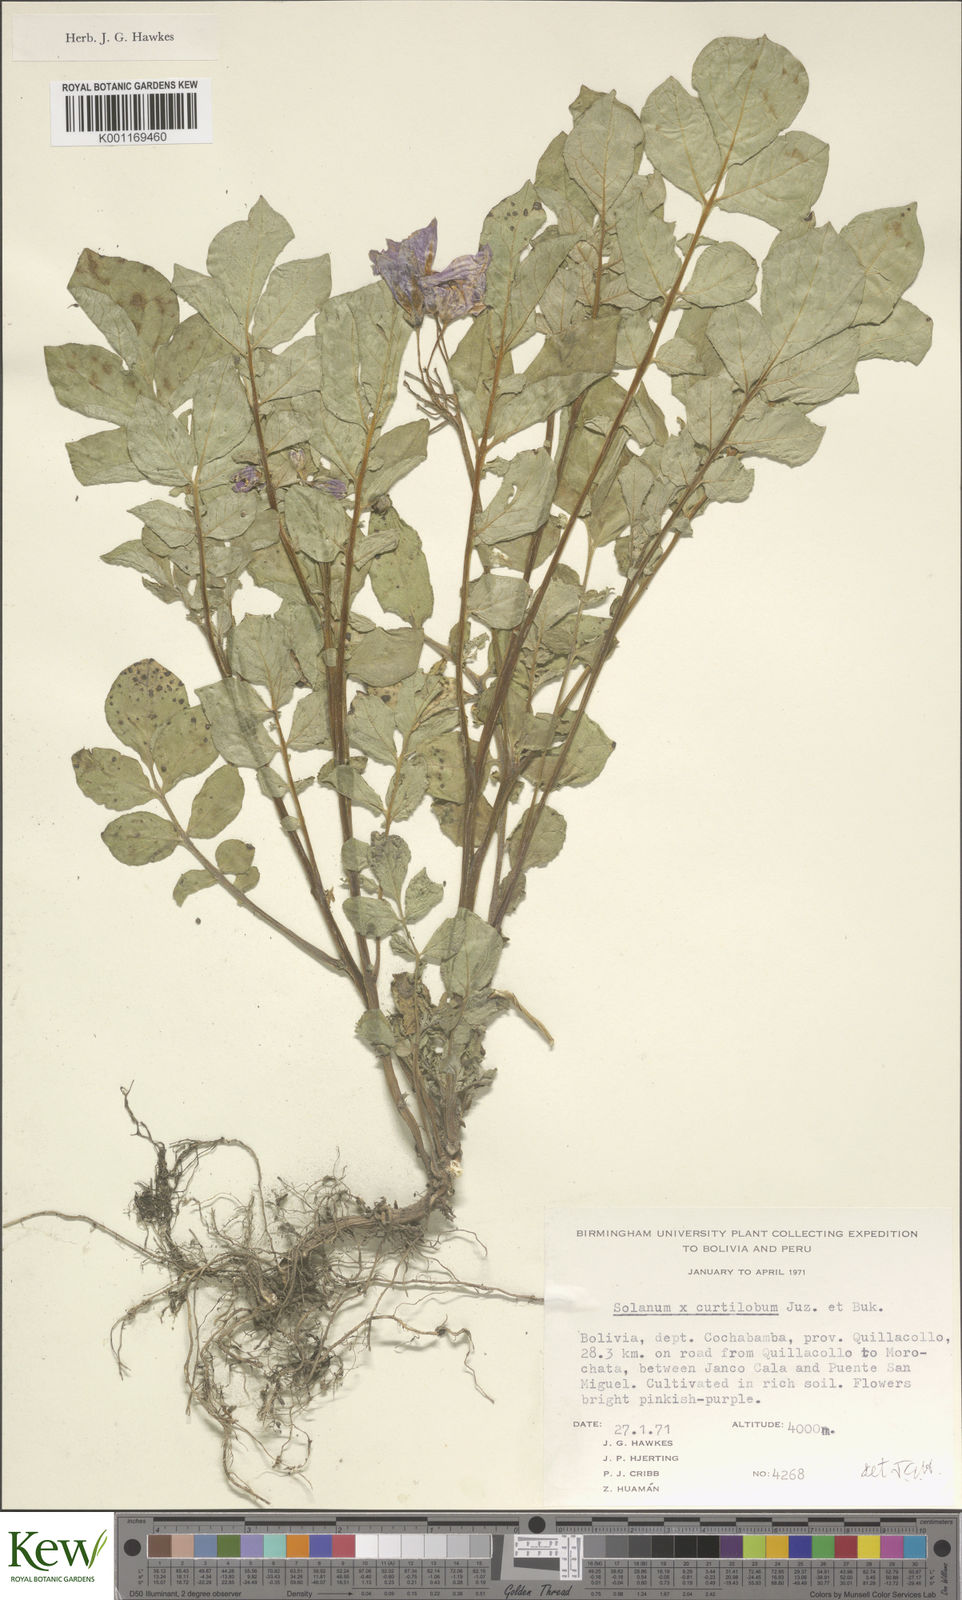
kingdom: Plantae
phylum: Tracheophyta
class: Magnoliopsida
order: Solanales
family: Solanaceae
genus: Solanum
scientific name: Solanum curtilobum
